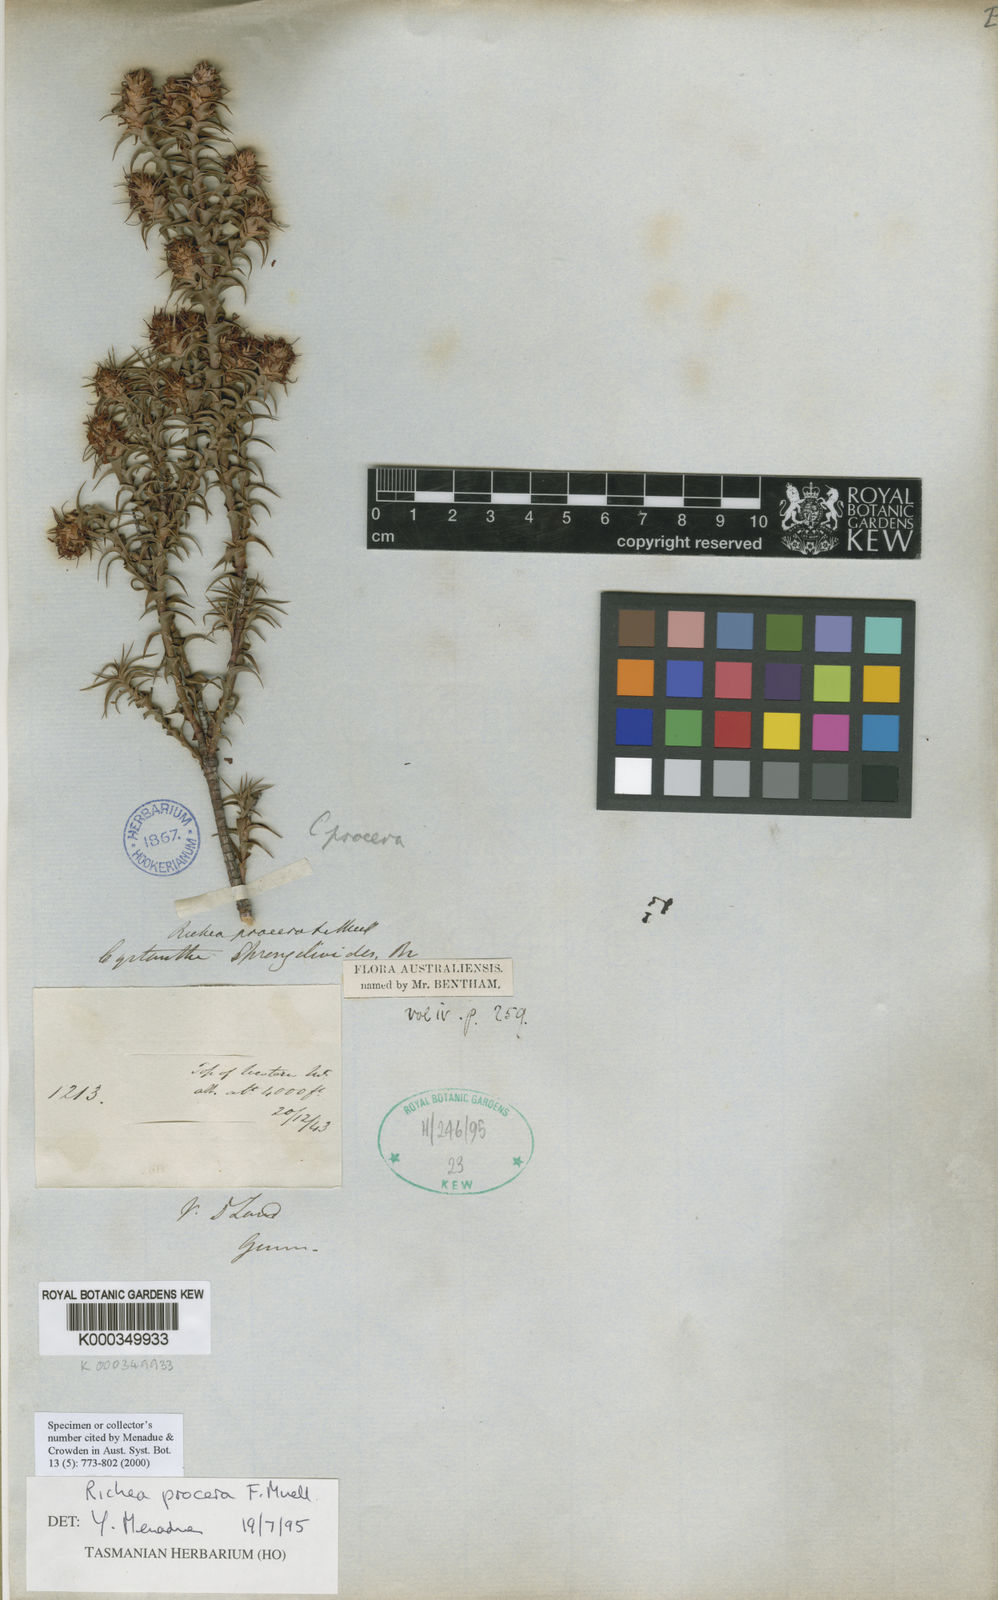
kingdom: Plantae
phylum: Tracheophyta
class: Magnoliopsida
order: Ericales
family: Ericaceae
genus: Dracophyllum
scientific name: Dracophyllum procerum
